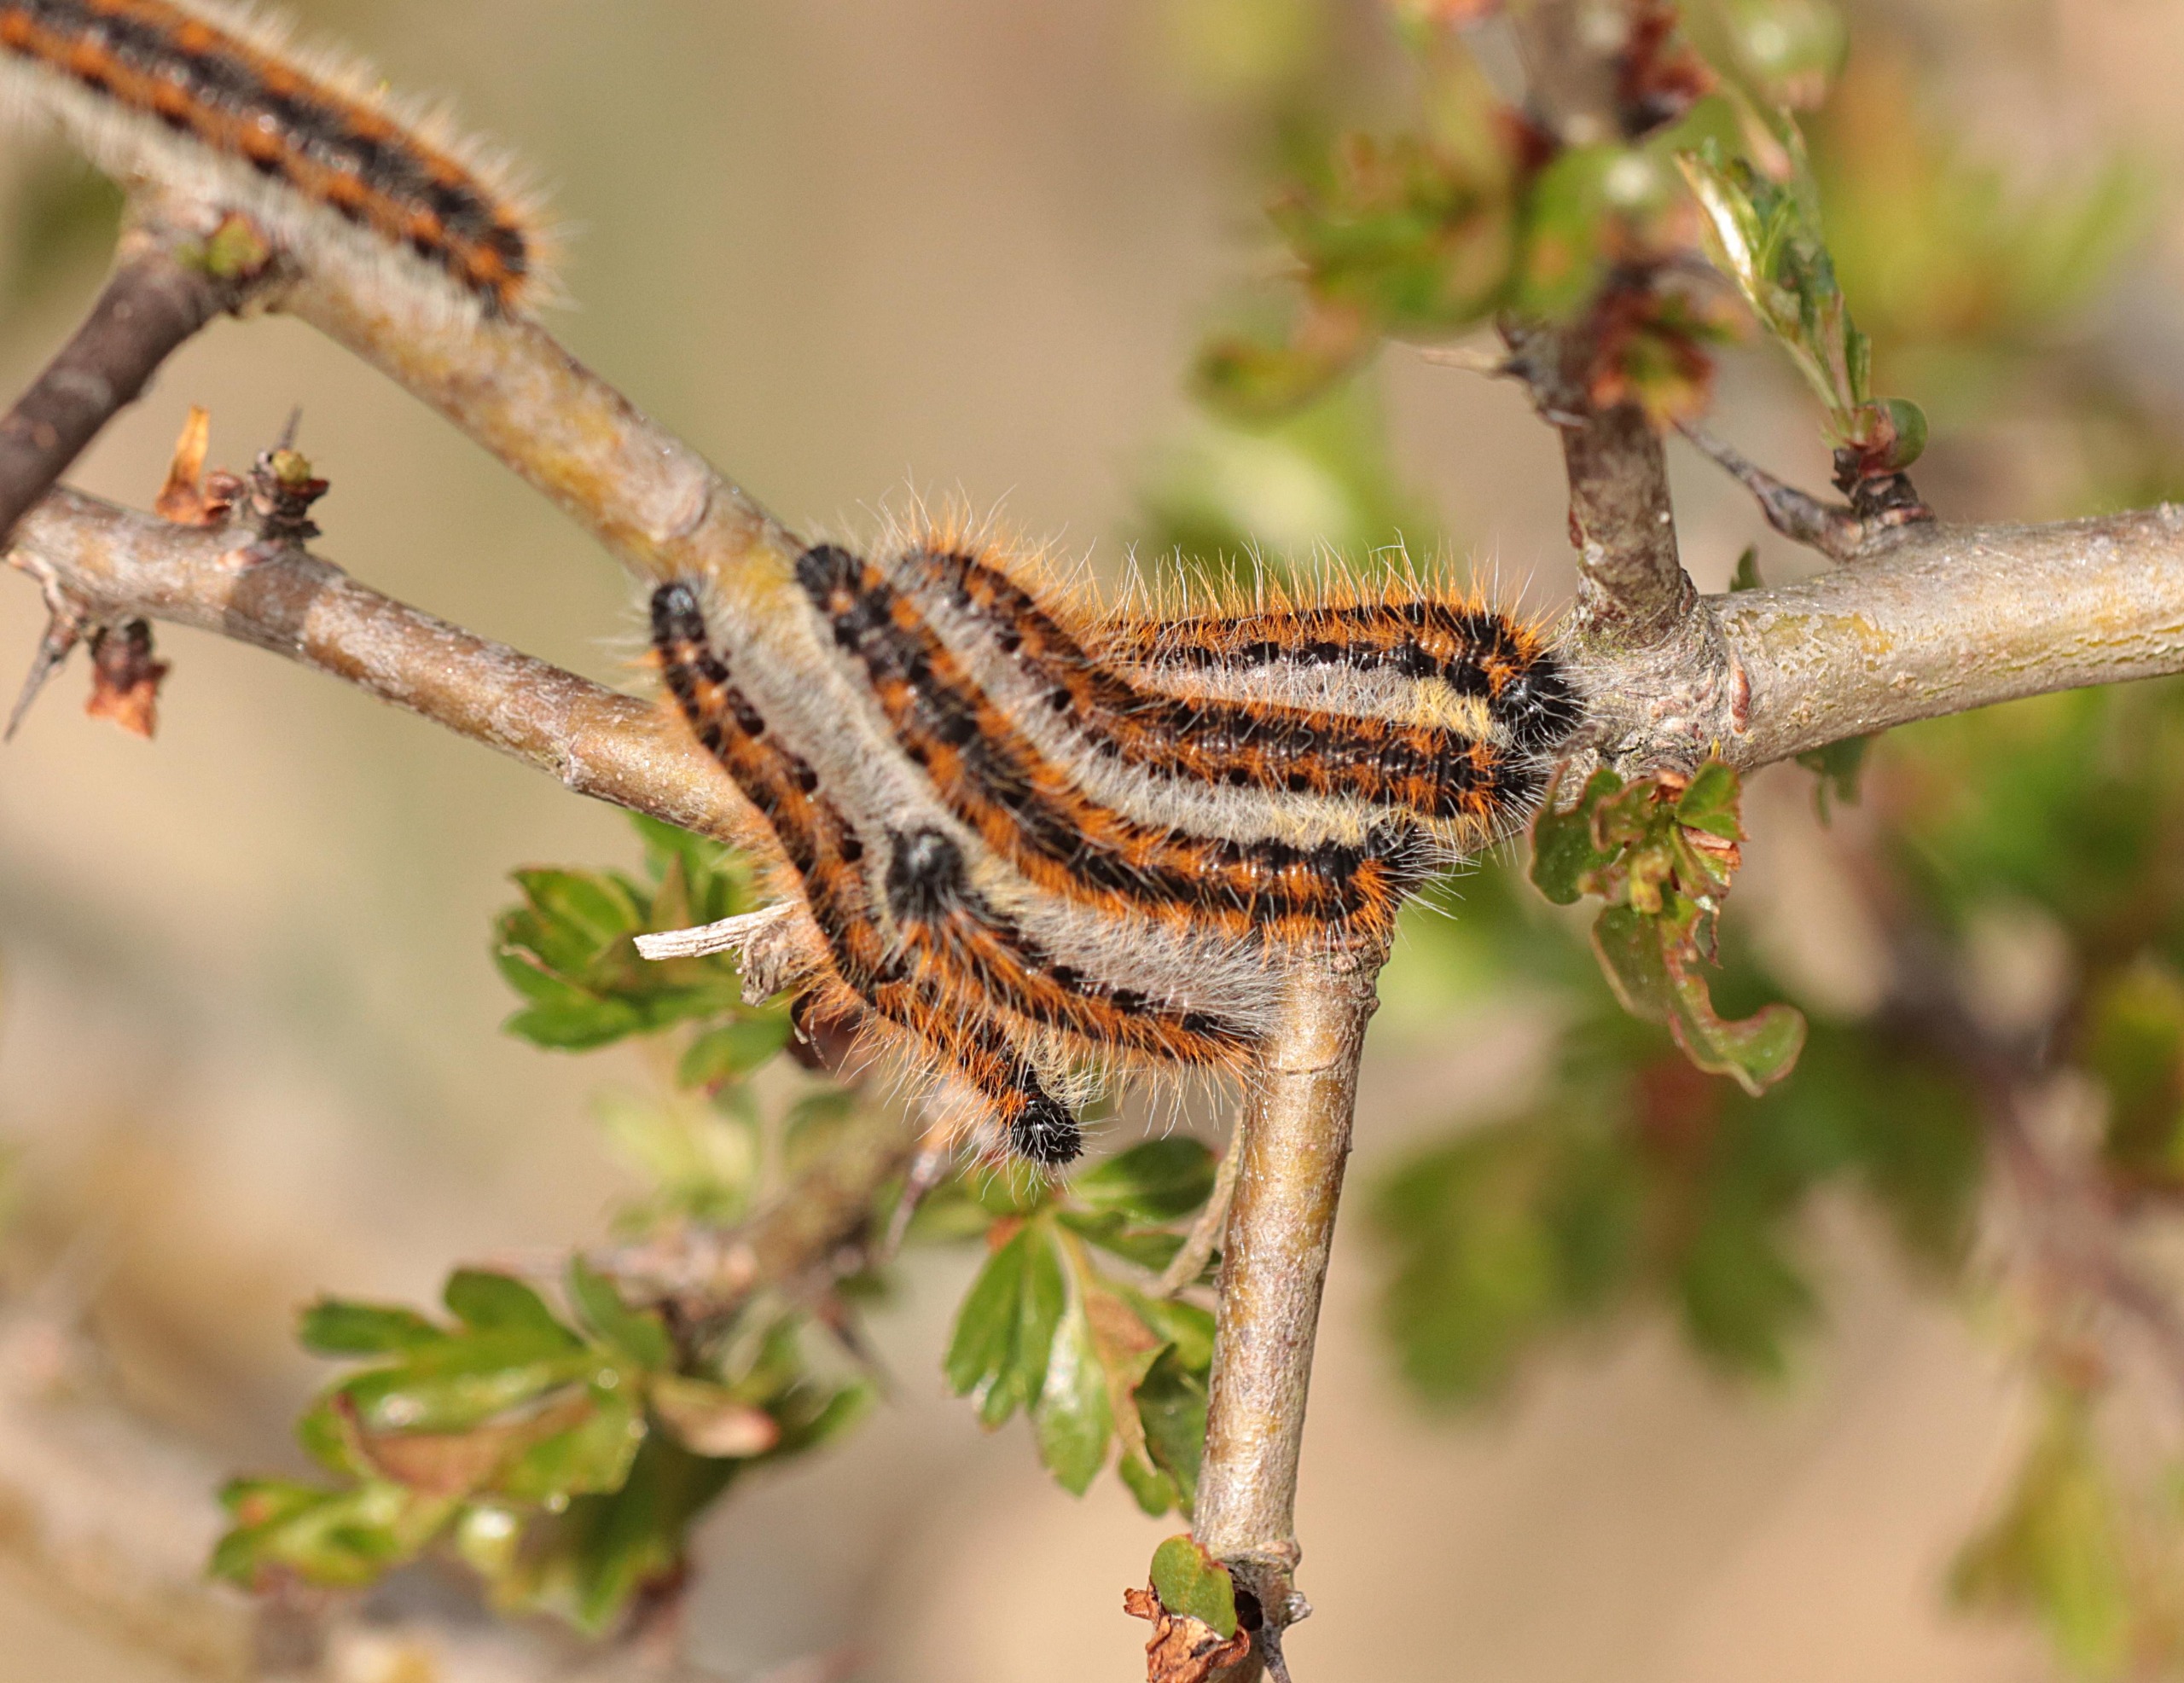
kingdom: Animalia
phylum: Arthropoda
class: Insecta
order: Lepidoptera
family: Pieridae
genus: Aporia
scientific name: Aporia crataegi
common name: Sortåret hvidvinge
